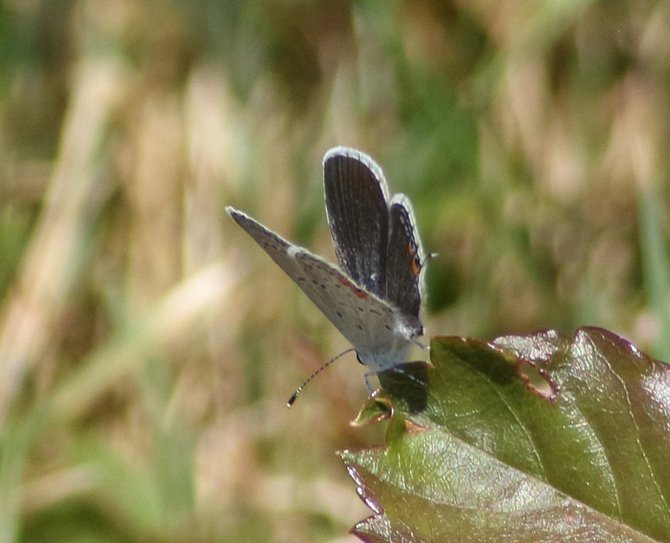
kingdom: Animalia
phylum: Arthropoda
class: Insecta
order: Lepidoptera
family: Lycaenidae
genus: Elkalyce
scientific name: Elkalyce comyntas
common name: Eastern Tailed-Blue
